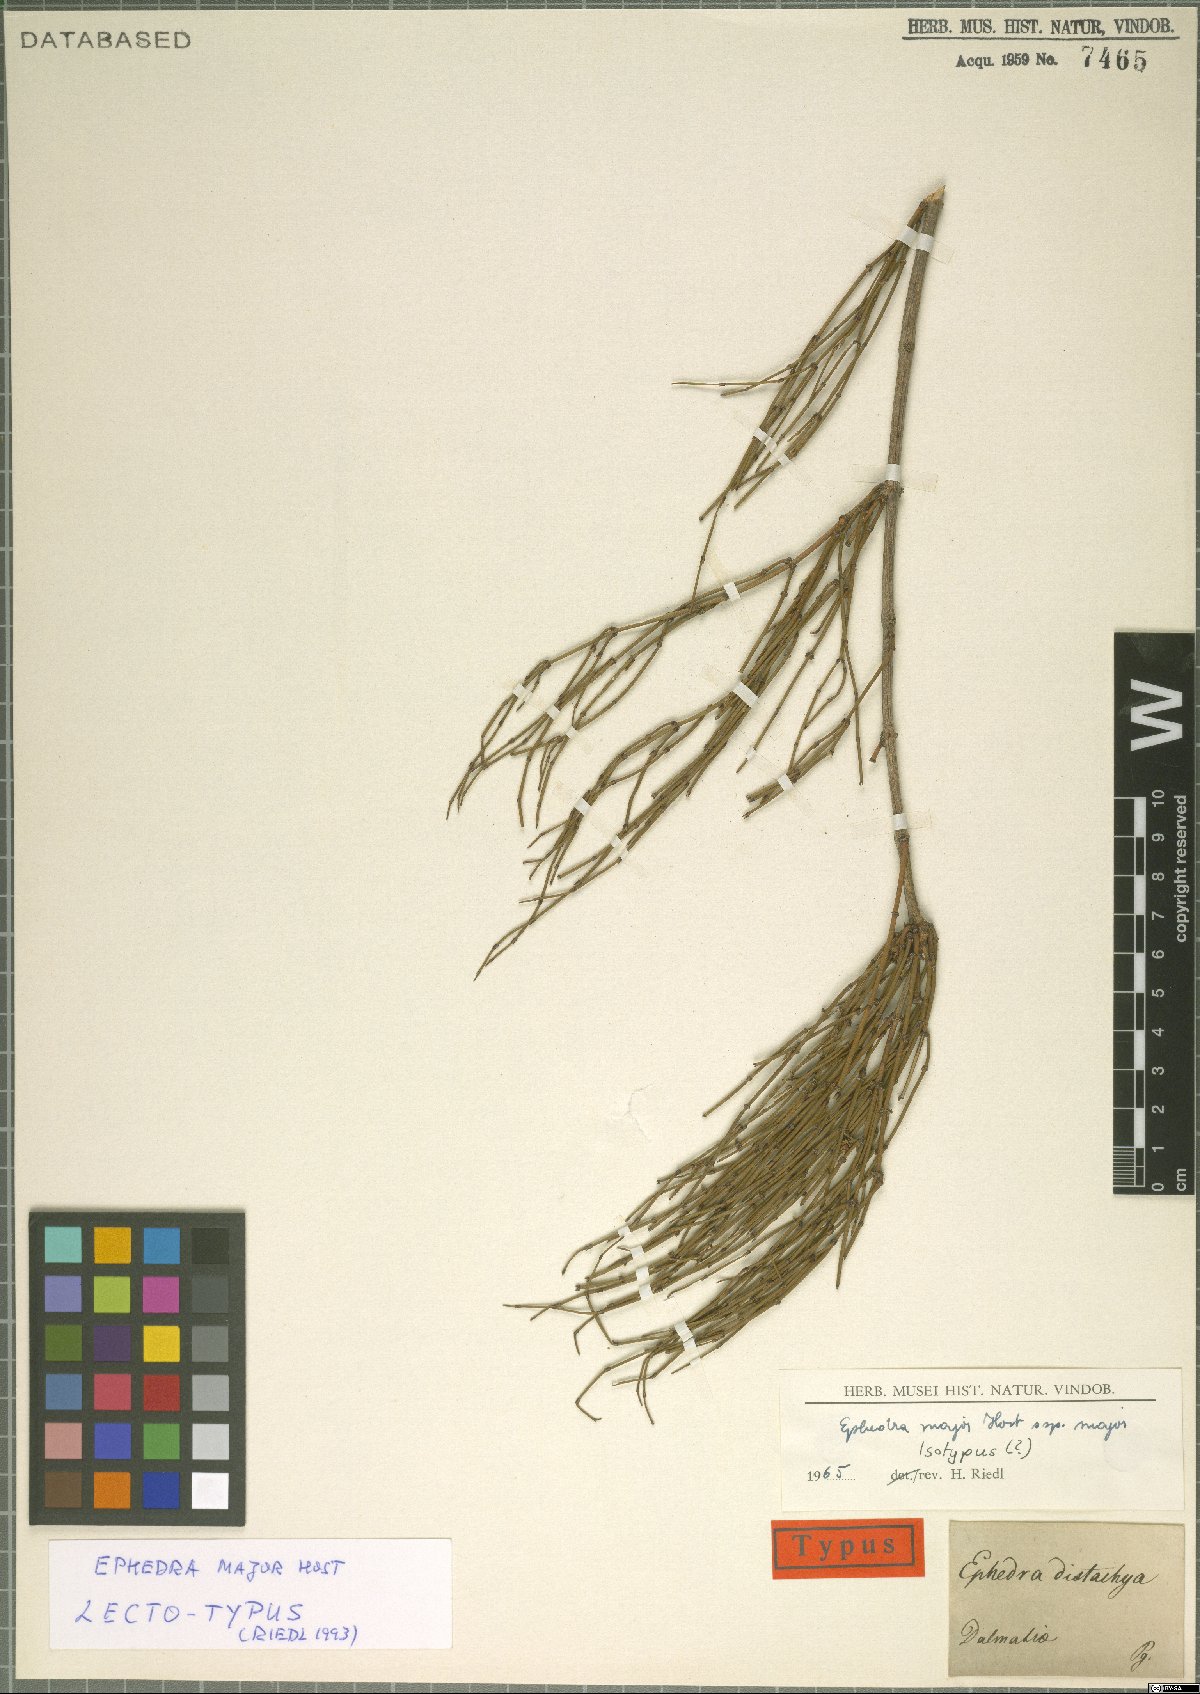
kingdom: Plantae
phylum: Tracheophyta
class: Gnetopsida
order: Ephedrales
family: Ephedraceae
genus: Ephedra
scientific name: Ephedra foeminea
